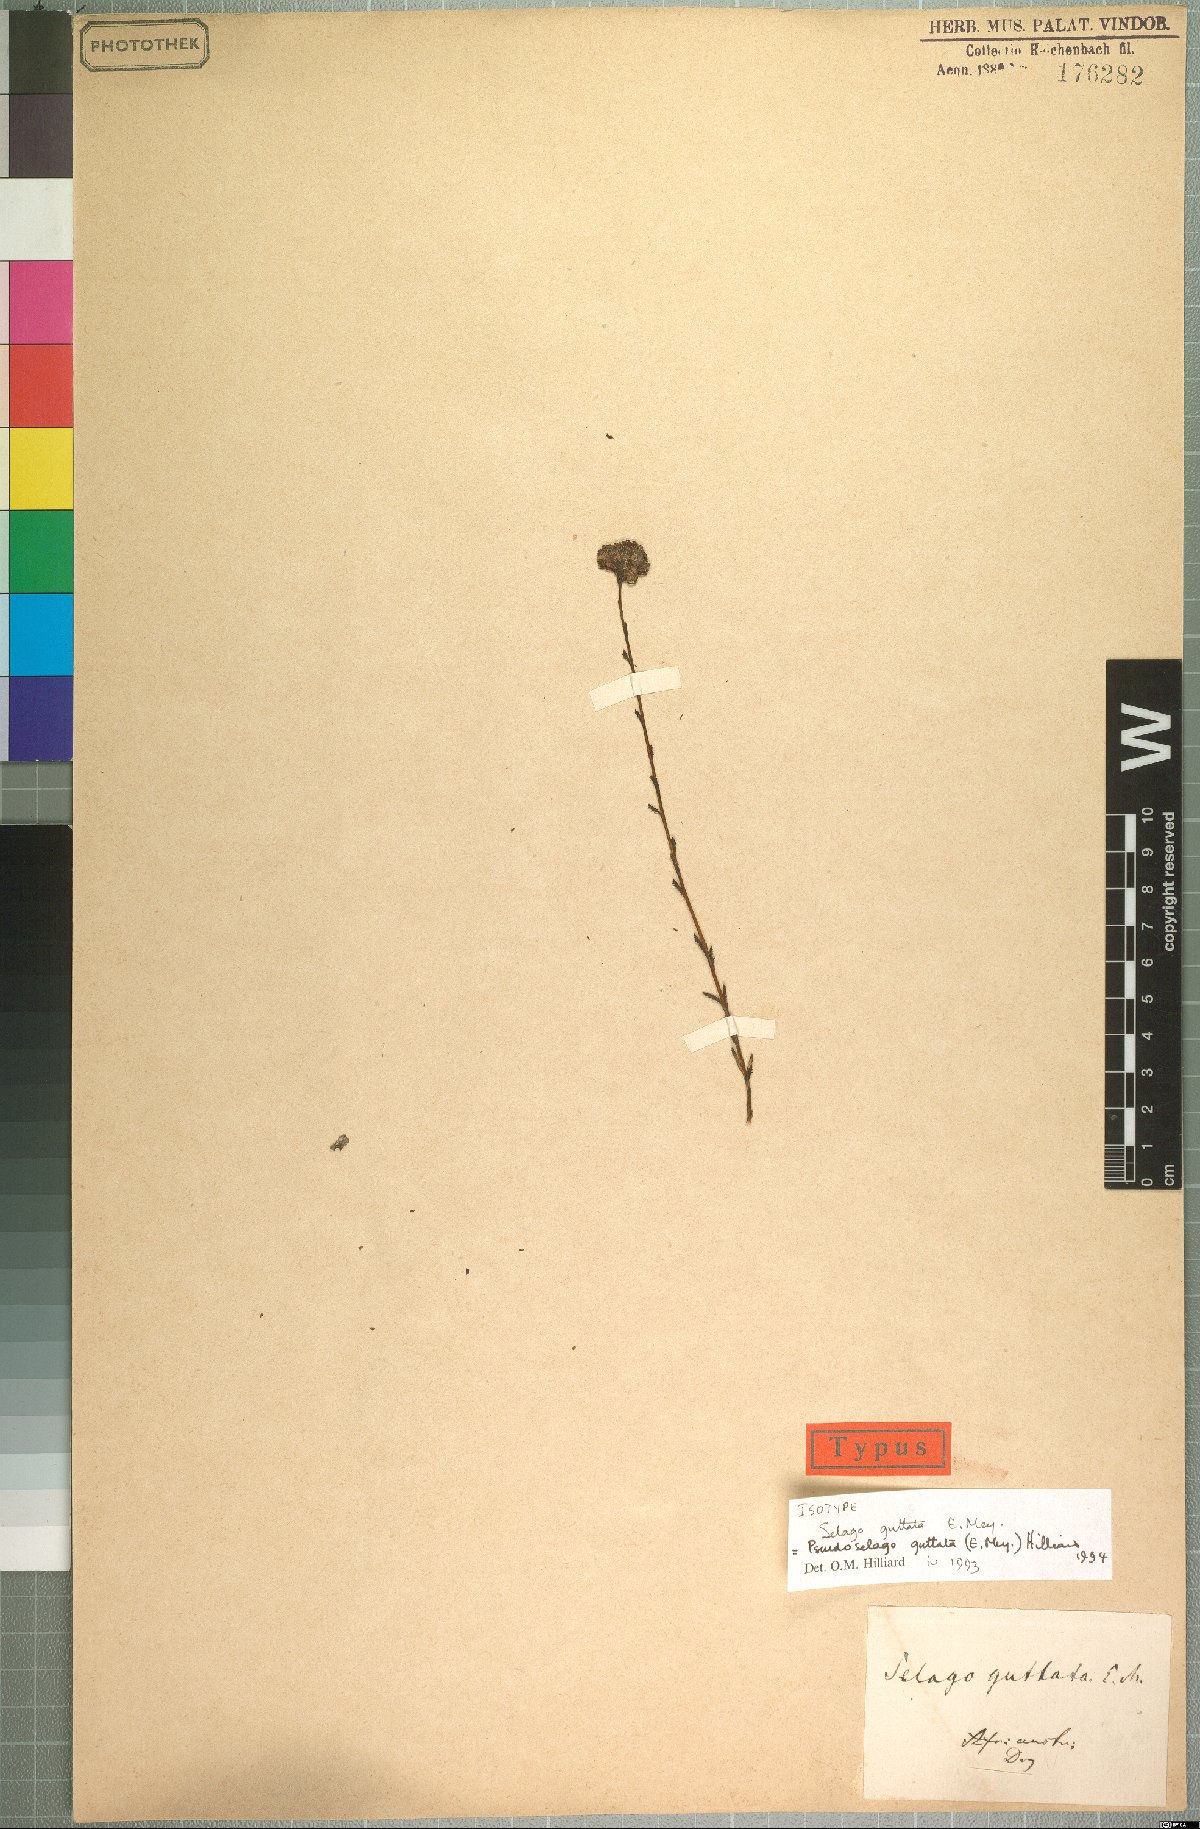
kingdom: Plantae
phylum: Tracheophyta
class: Magnoliopsida
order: Lamiales
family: Scrophulariaceae
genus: Pseudoselago
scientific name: Pseudoselago guttata
